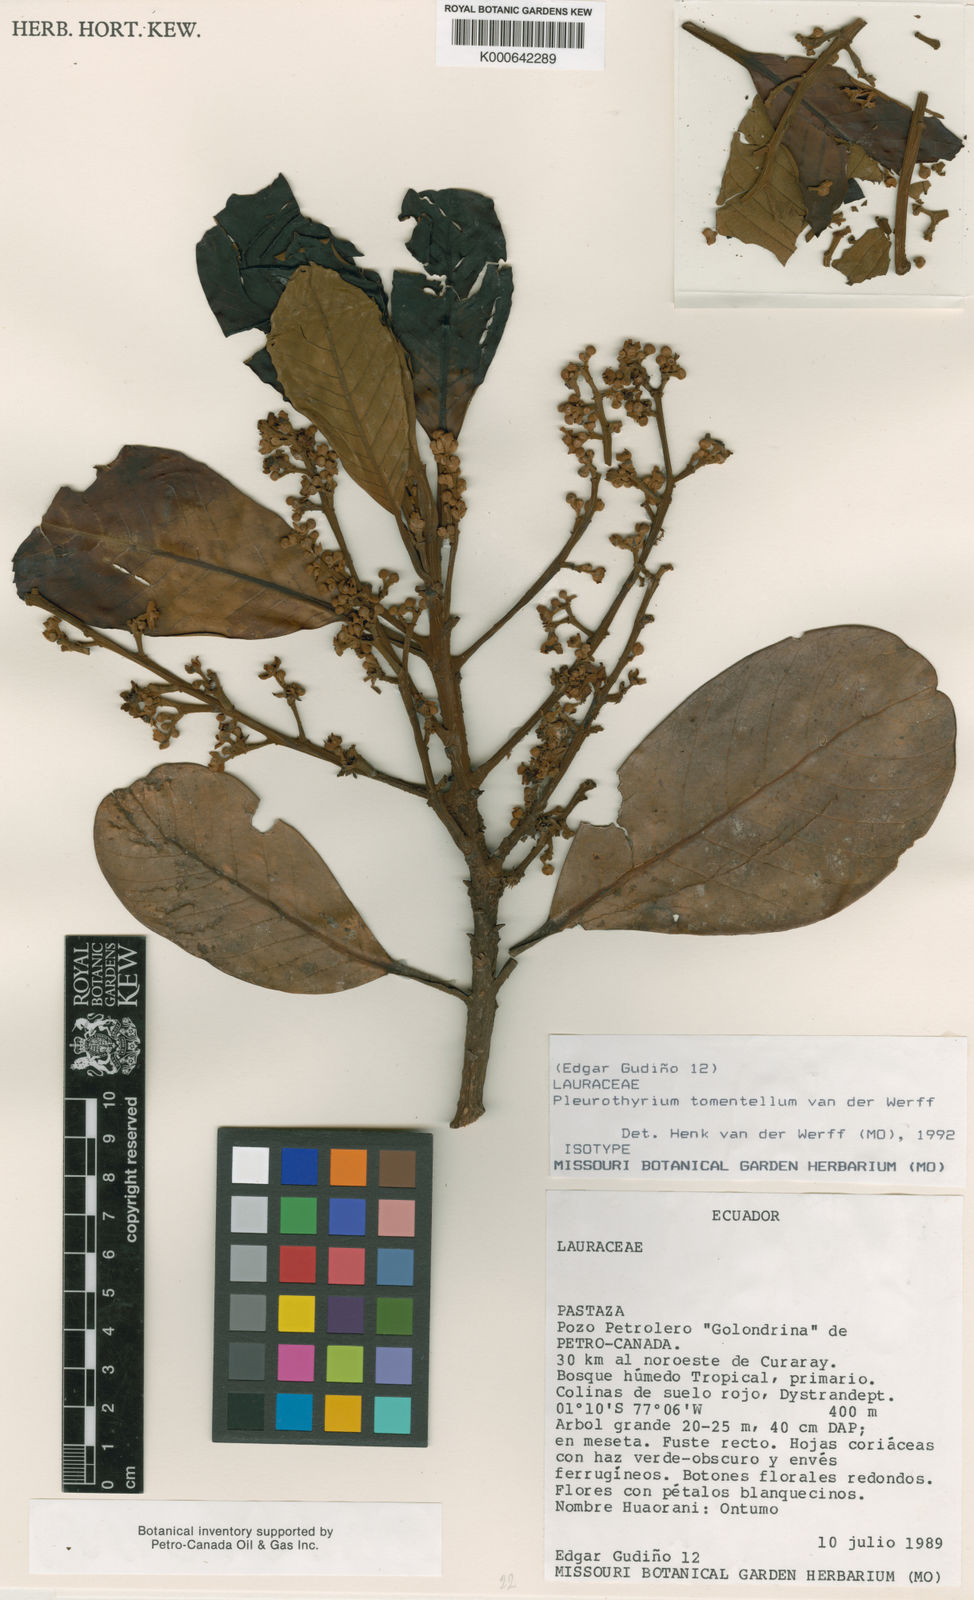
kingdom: Plantae
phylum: Tracheophyta
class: Magnoliopsida
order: Laurales
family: Lauraceae
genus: Pleurothyrium
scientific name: Pleurothyrium tomentellum
